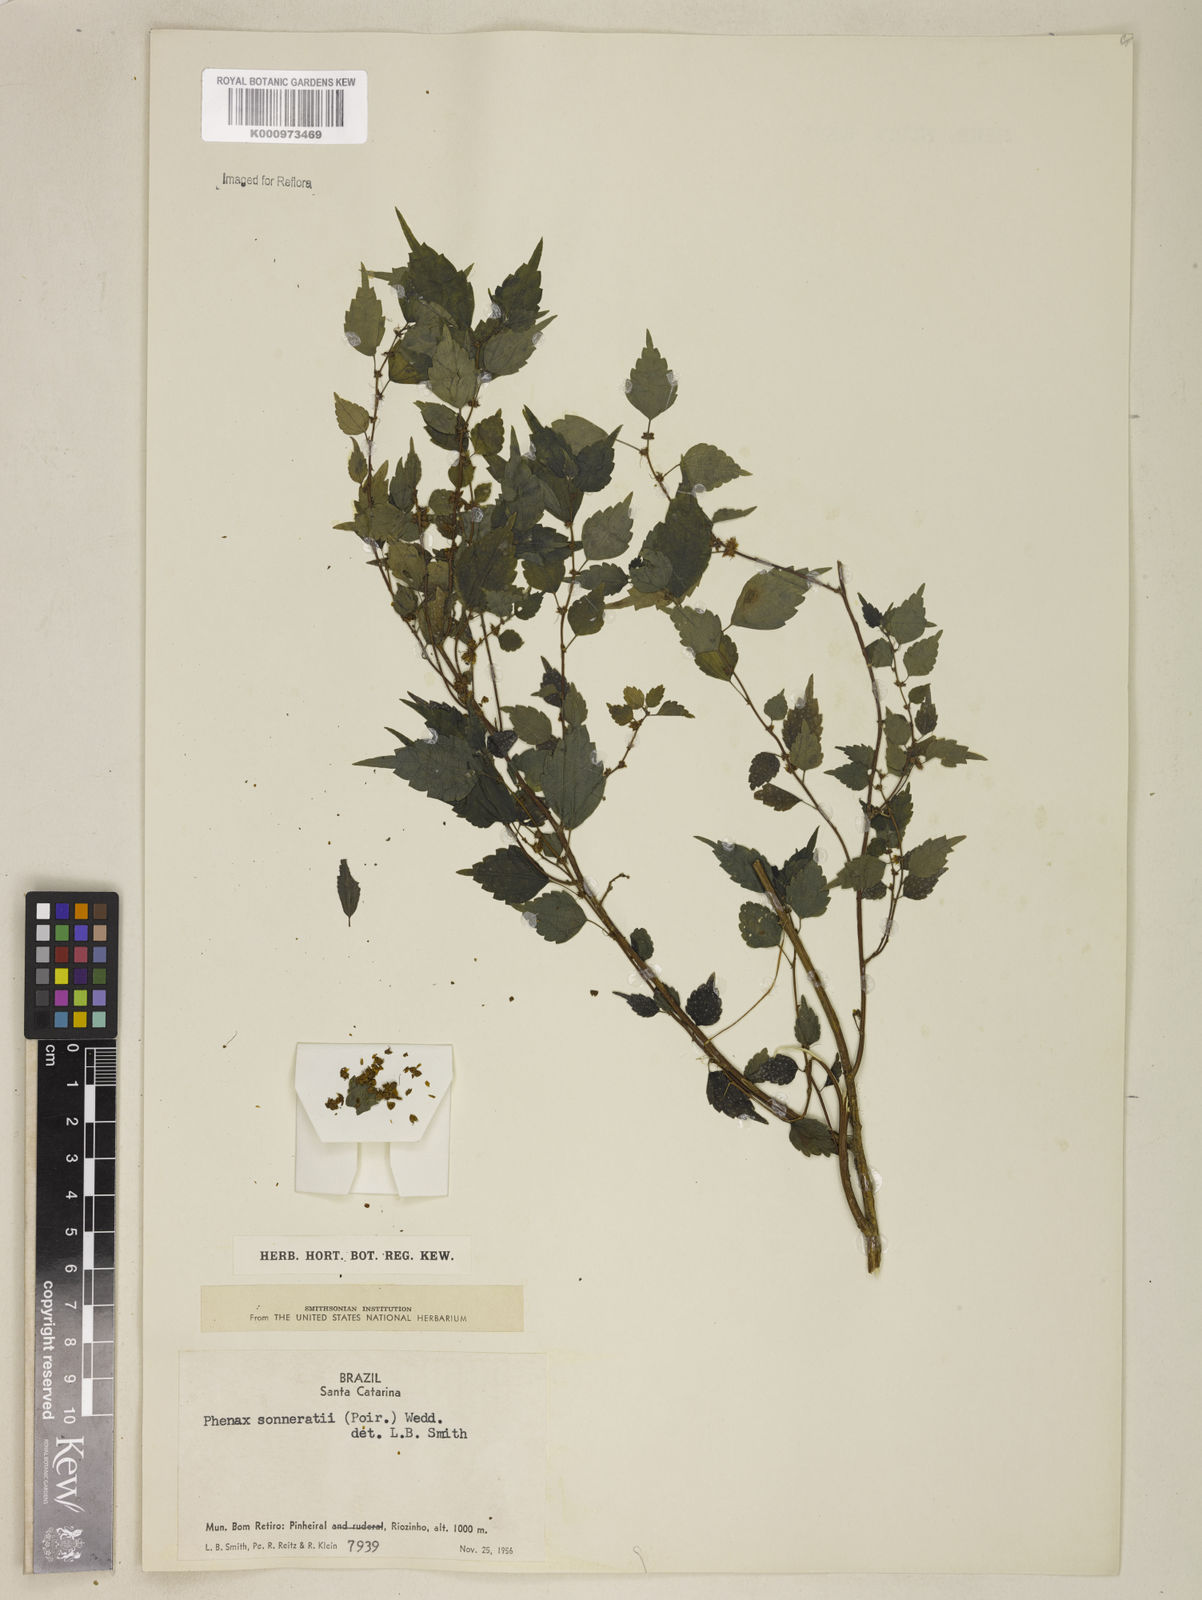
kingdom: Plantae
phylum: Tracheophyta
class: Magnoliopsida
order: Rosales
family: Urticaceae
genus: Phenax
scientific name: Phenax sonneratii
